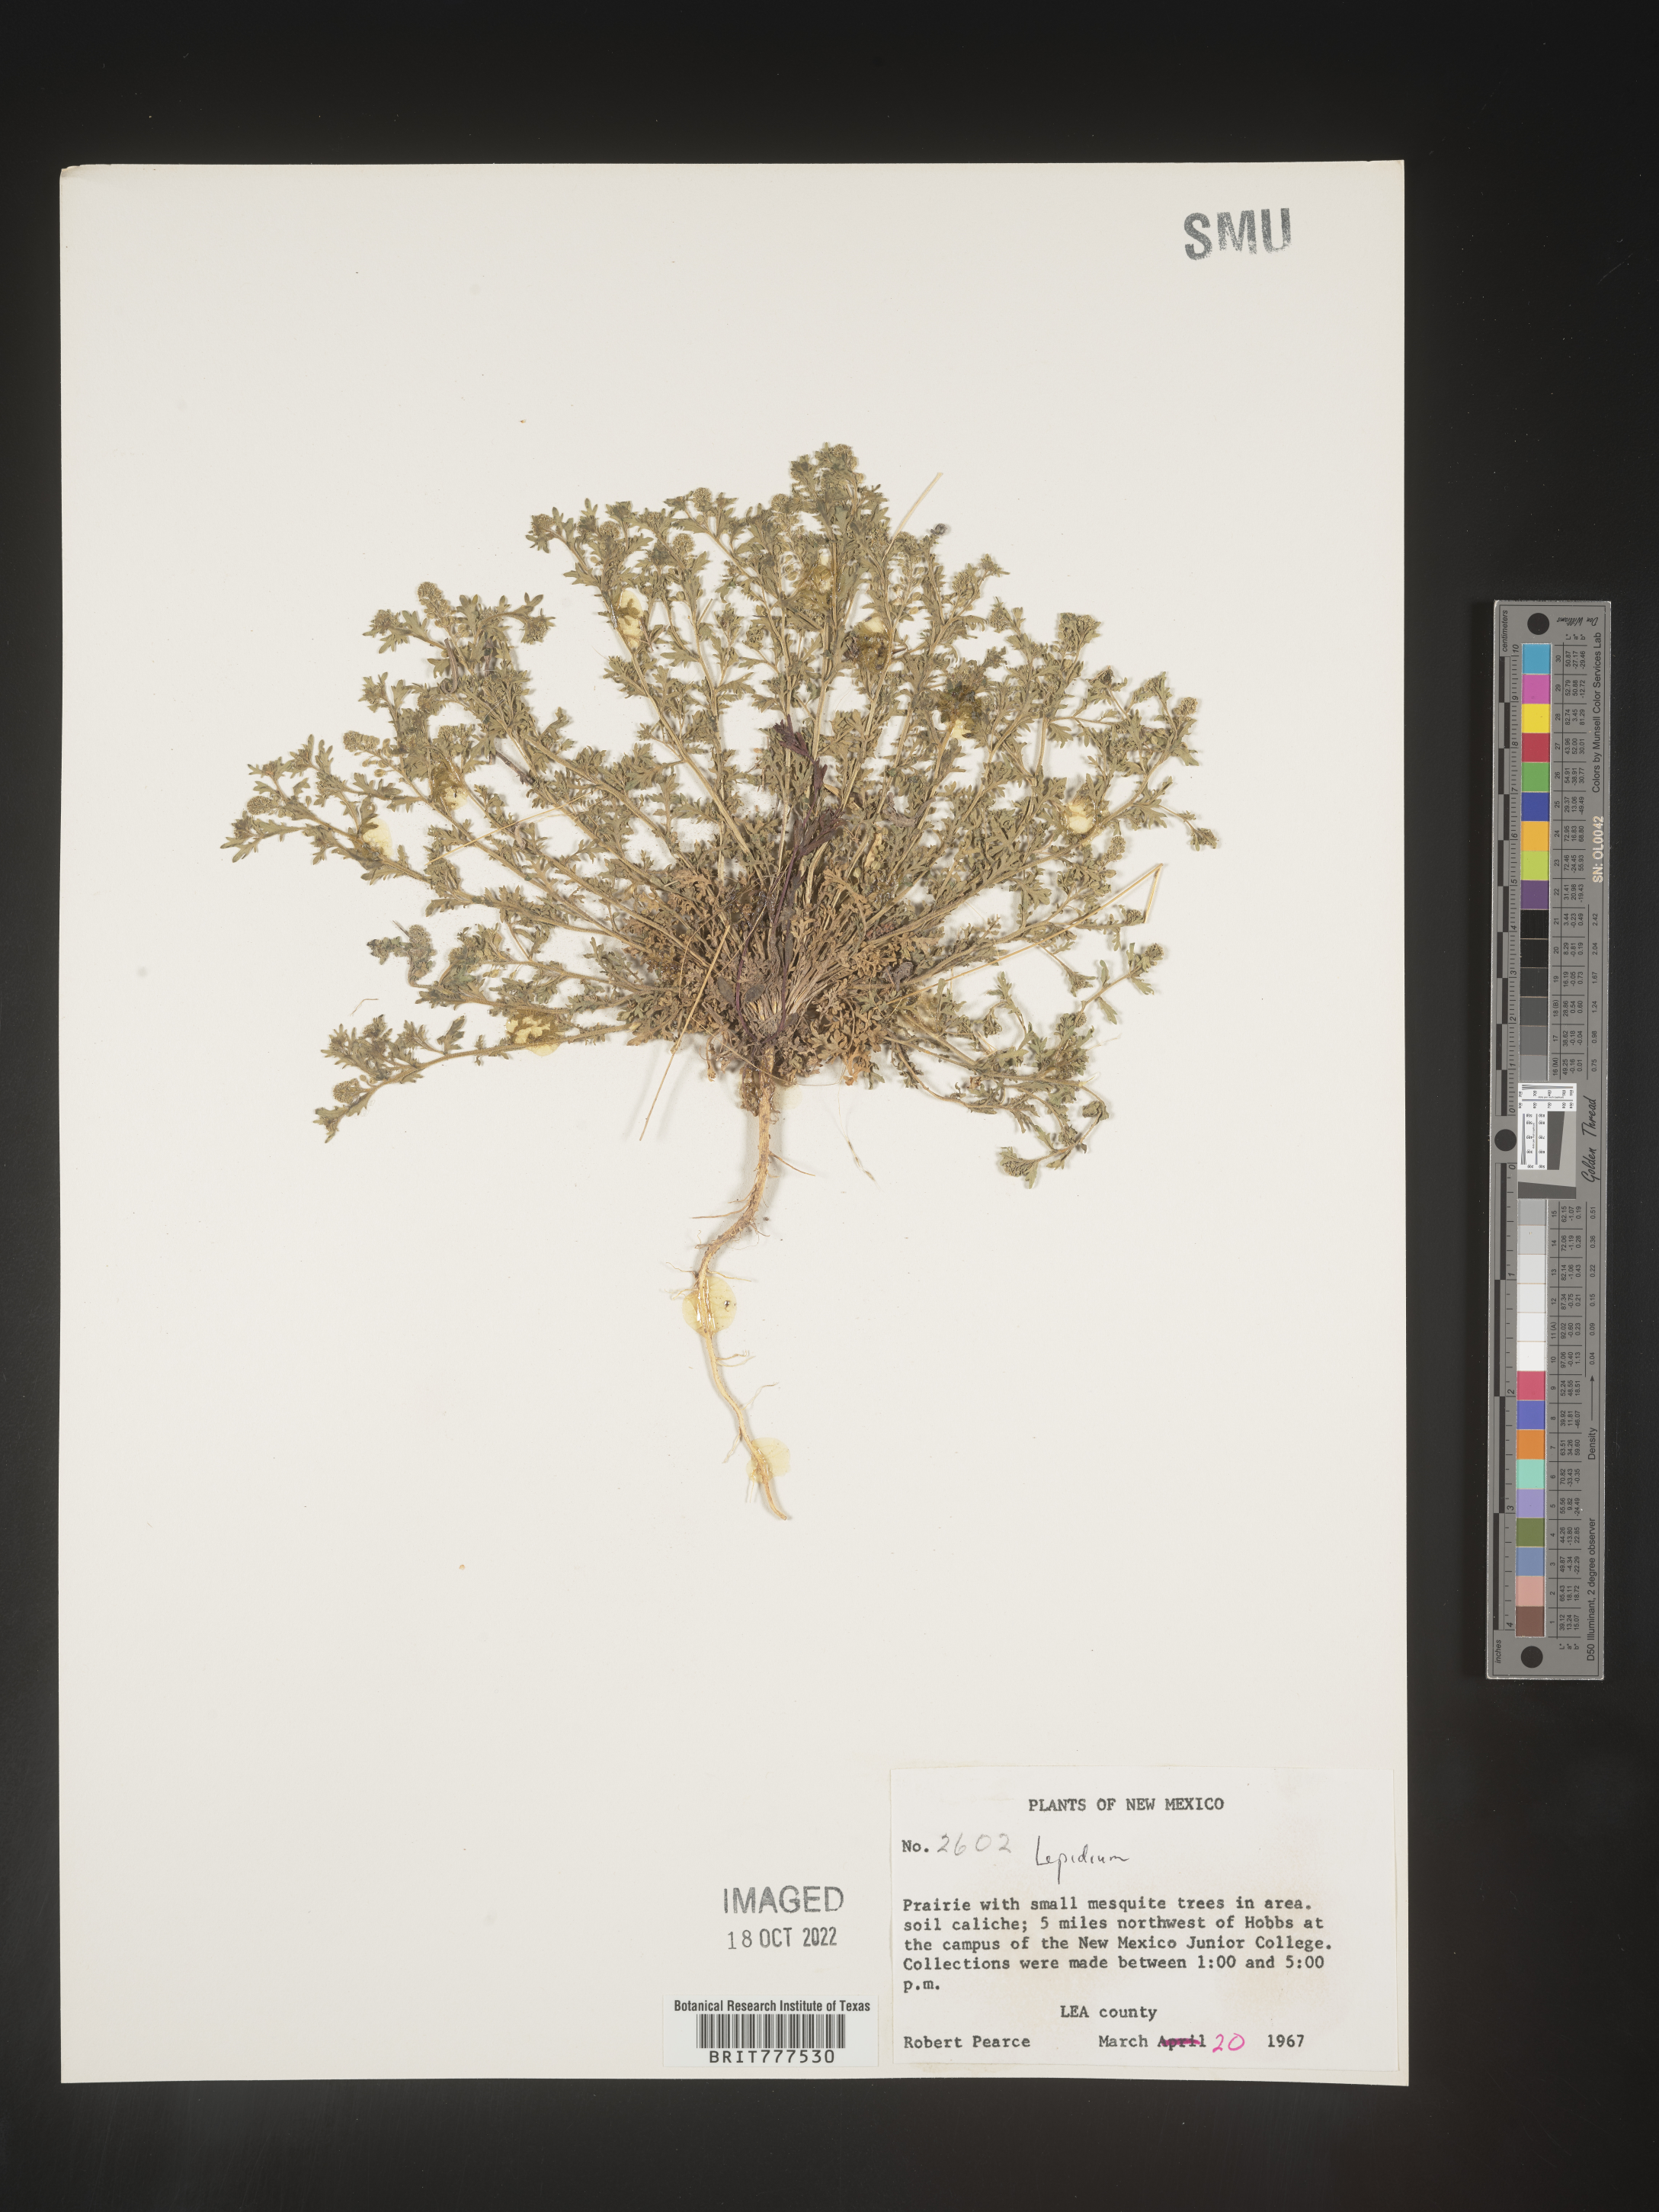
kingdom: Plantae
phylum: Tracheophyta
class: Magnoliopsida
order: Brassicales
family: Brassicaceae
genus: Lepidium
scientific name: Lepidium
